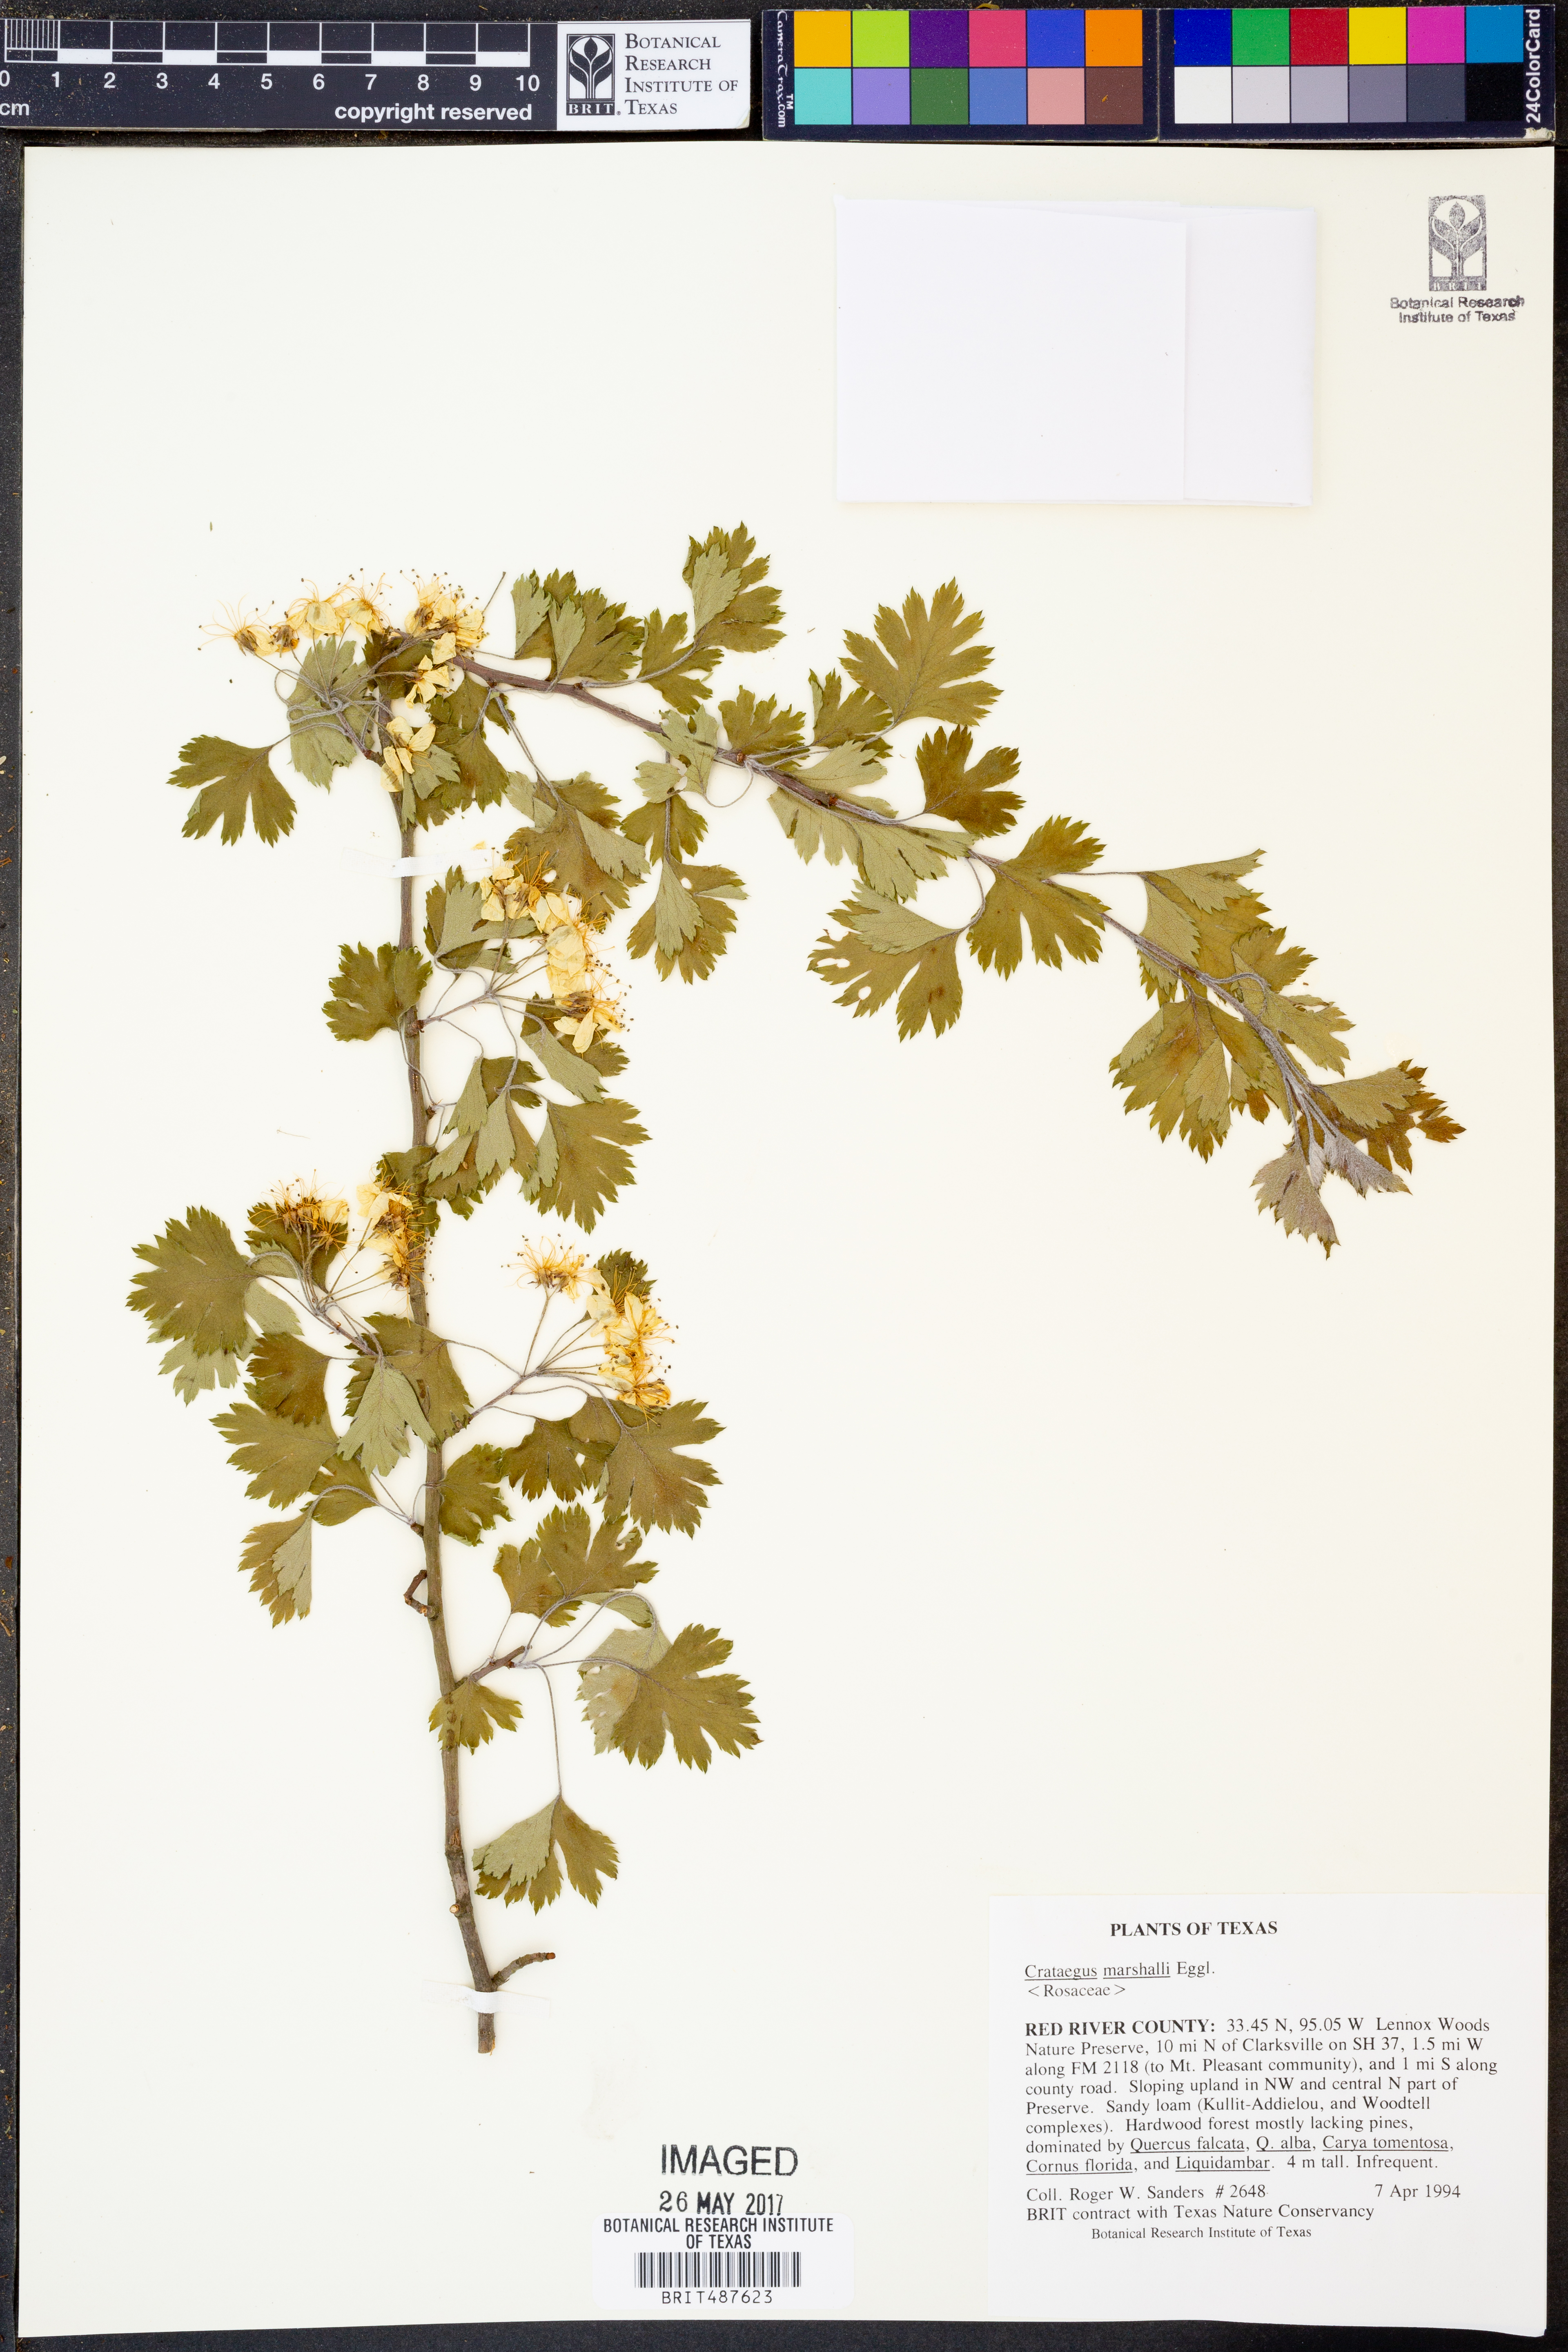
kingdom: Plantae
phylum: Tracheophyta
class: Magnoliopsida
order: Rosales
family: Rosaceae
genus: Crataegus
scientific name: Crataegus marshallii
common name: Parsley-hawthorn
